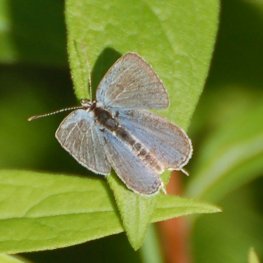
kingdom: Animalia
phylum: Arthropoda
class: Insecta
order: Lepidoptera
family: Lycaenidae
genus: Elkalyce
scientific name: Elkalyce amyntula
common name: Western Tailed-Blue
